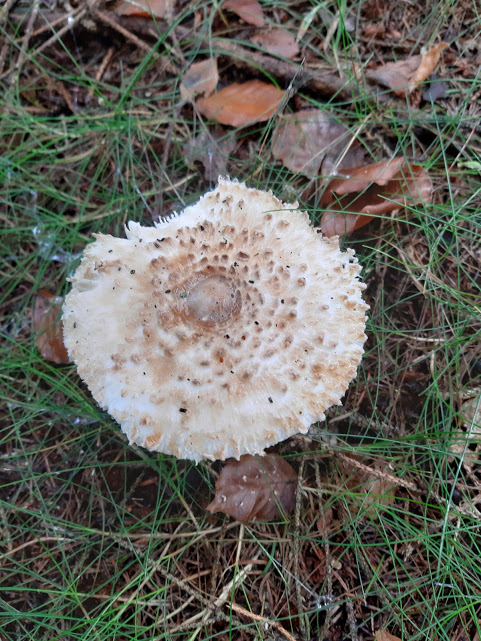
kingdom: Fungi
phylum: Basidiomycota
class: Agaricomycetes
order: Agaricales
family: Agaricaceae
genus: Leucoagaricus
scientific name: Leucoagaricus nympharum
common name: gran-silkehat
